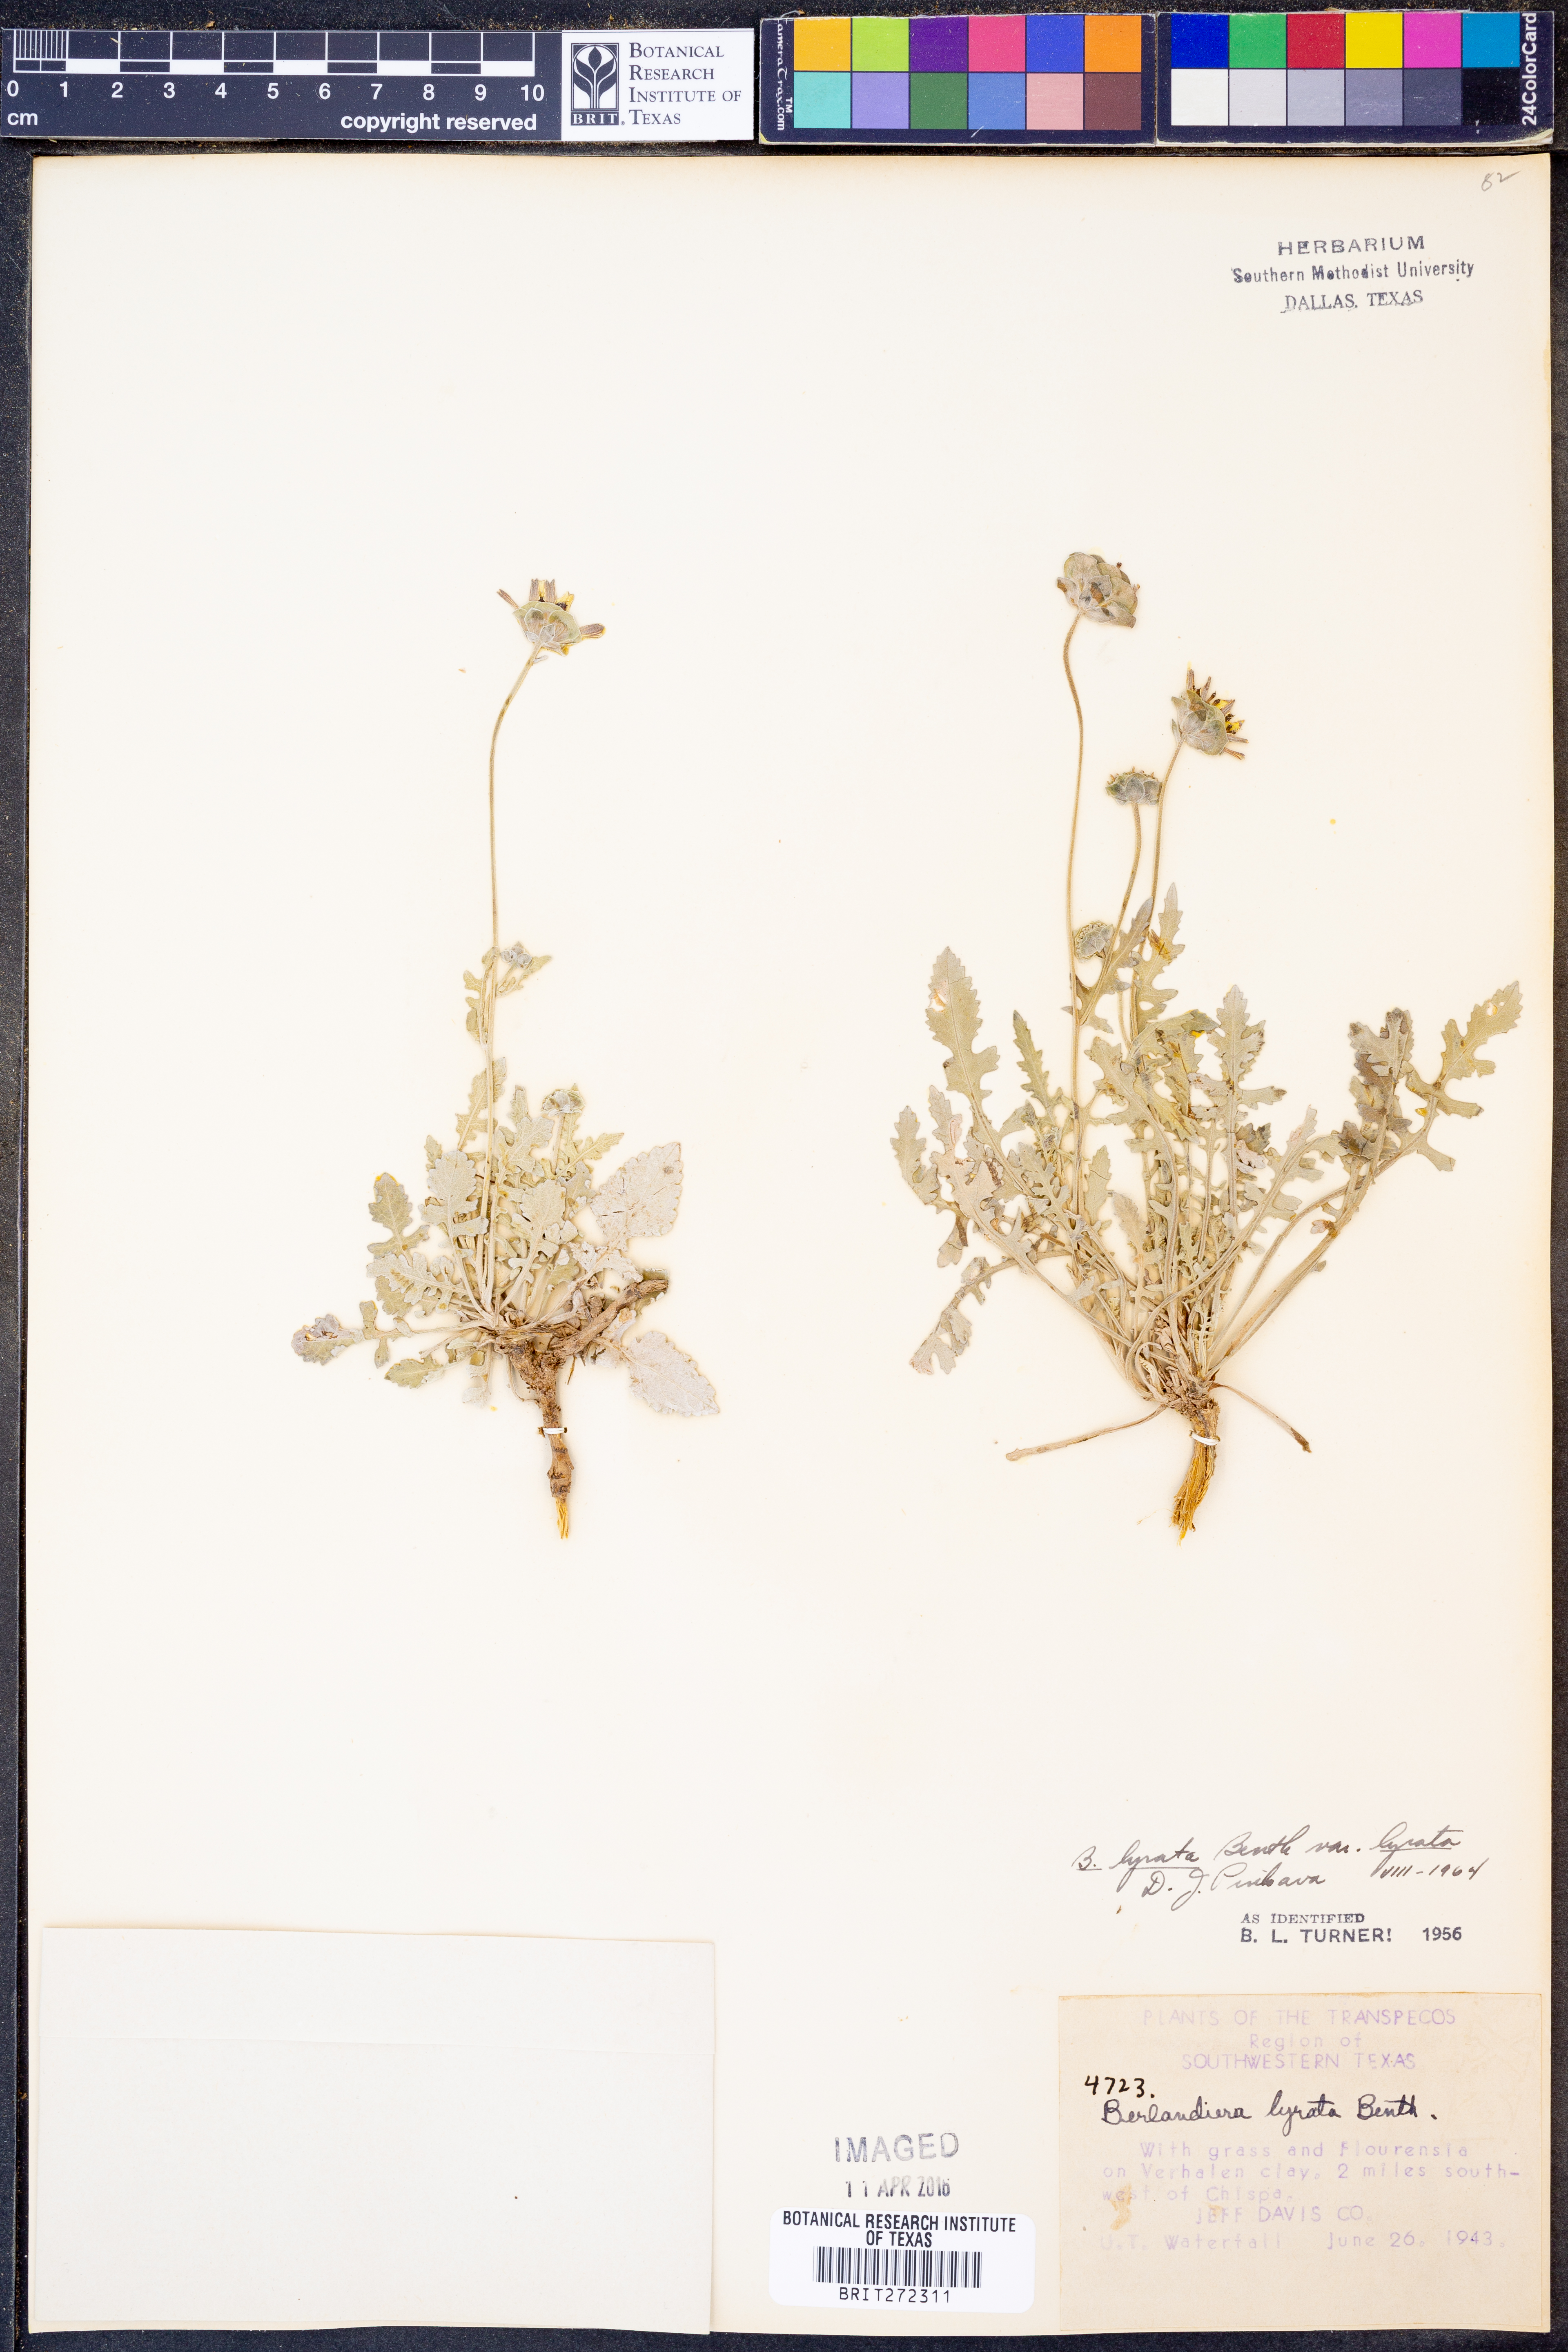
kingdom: Plantae
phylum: Tracheophyta
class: Magnoliopsida
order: Asterales
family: Asteraceae
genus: Berlandiera
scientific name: Berlandiera lyrata
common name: Chocolate-flower
